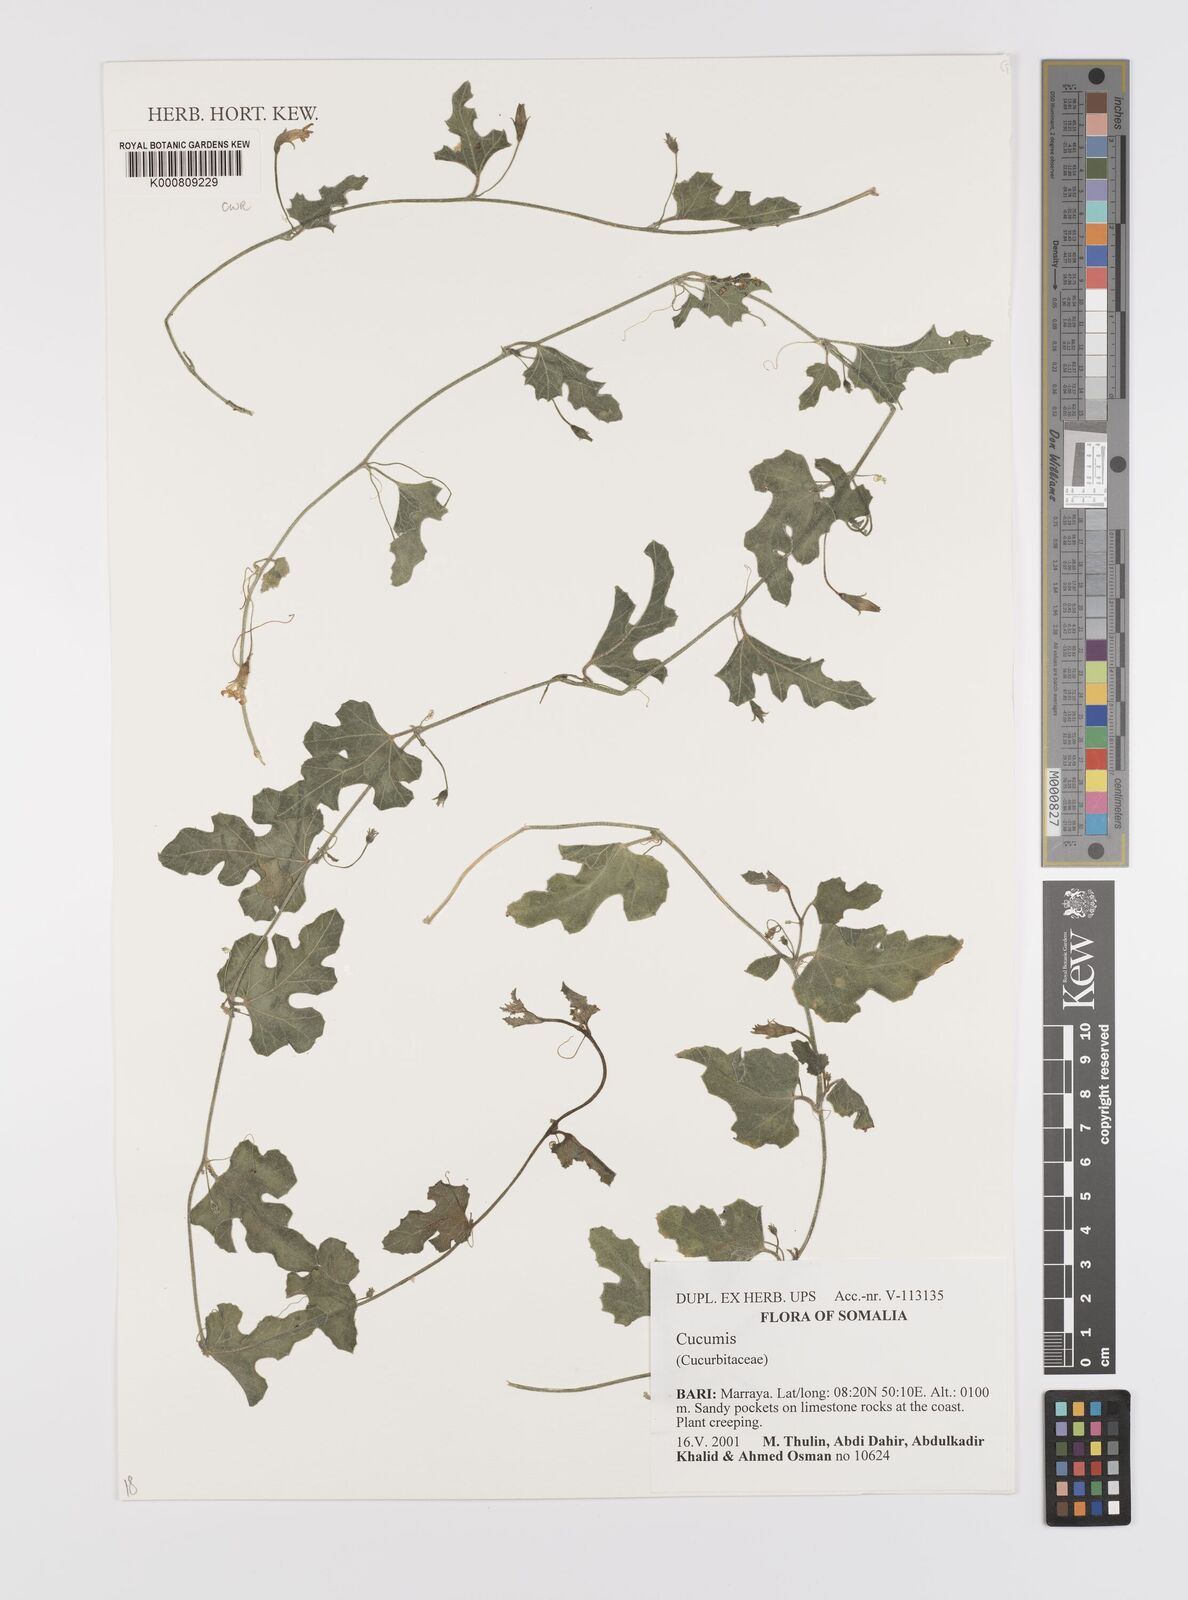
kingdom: Plantae
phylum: Tracheophyta
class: Magnoliopsida
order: Cucurbitales
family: Cucurbitaceae
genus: Cucumis
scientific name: Cucumis
